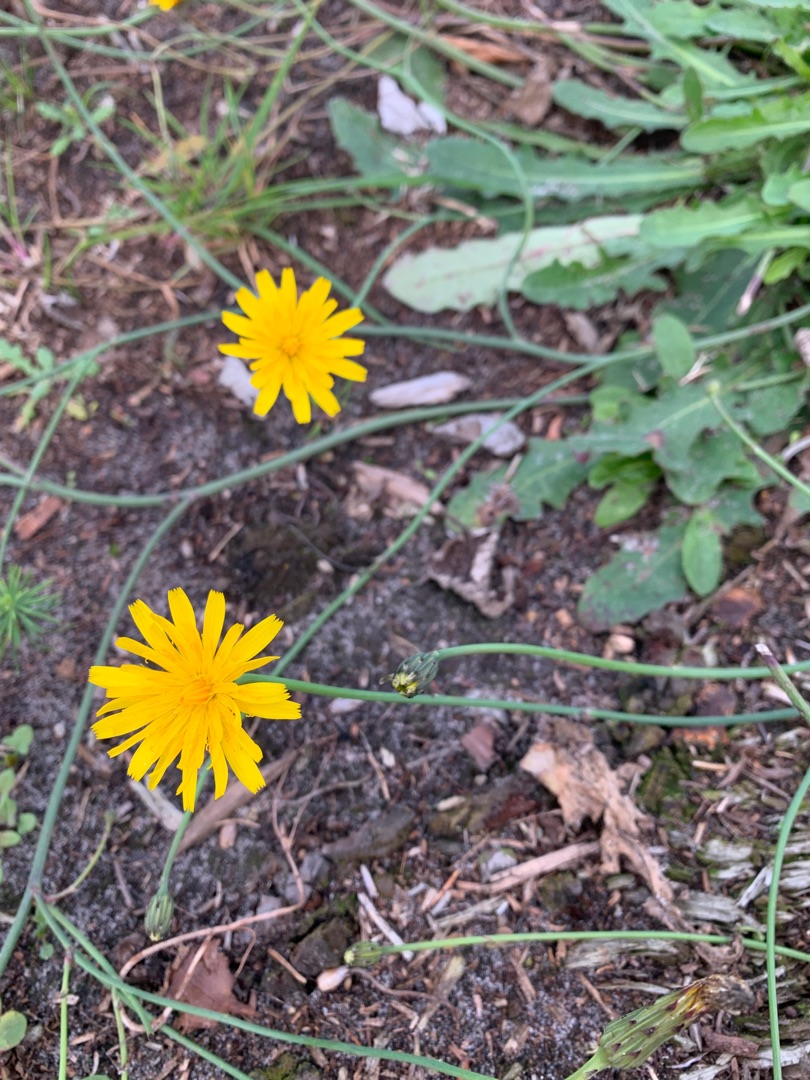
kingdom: Plantae
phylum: Tracheophyta
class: Magnoliopsida
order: Asterales
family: Asteraceae
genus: Hypochaeris
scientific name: Hypochaeris radicata
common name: Almindelig kongepen
